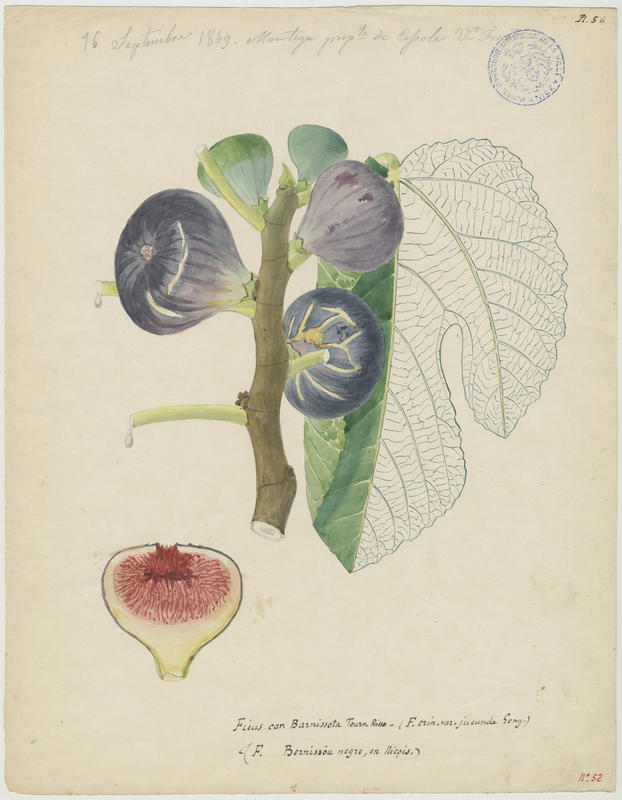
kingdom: Plantae
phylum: Tracheophyta
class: Magnoliopsida
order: Rosales
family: Moraceae
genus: Ficus
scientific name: Ficus carica
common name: Fig
